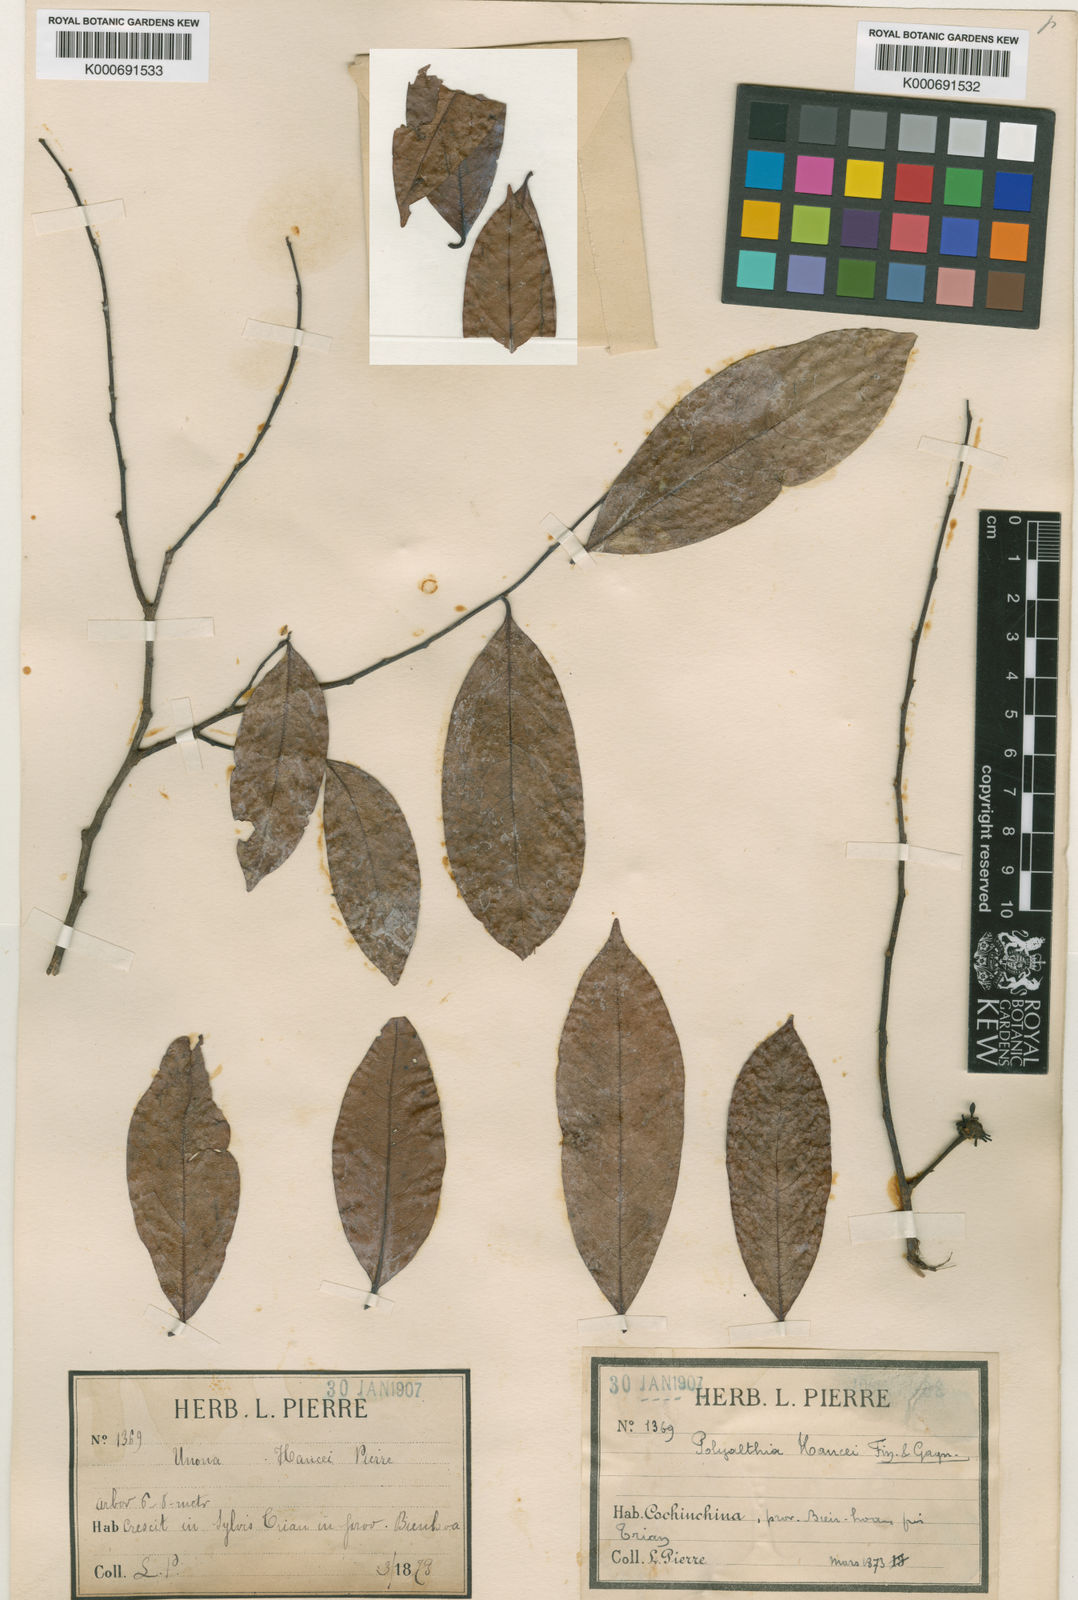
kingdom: Plantae
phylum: Tracheophyta
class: Magnoliopsida
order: Magnoliales
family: Annonaceae
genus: Hubera
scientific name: Hubera jenkinsii
